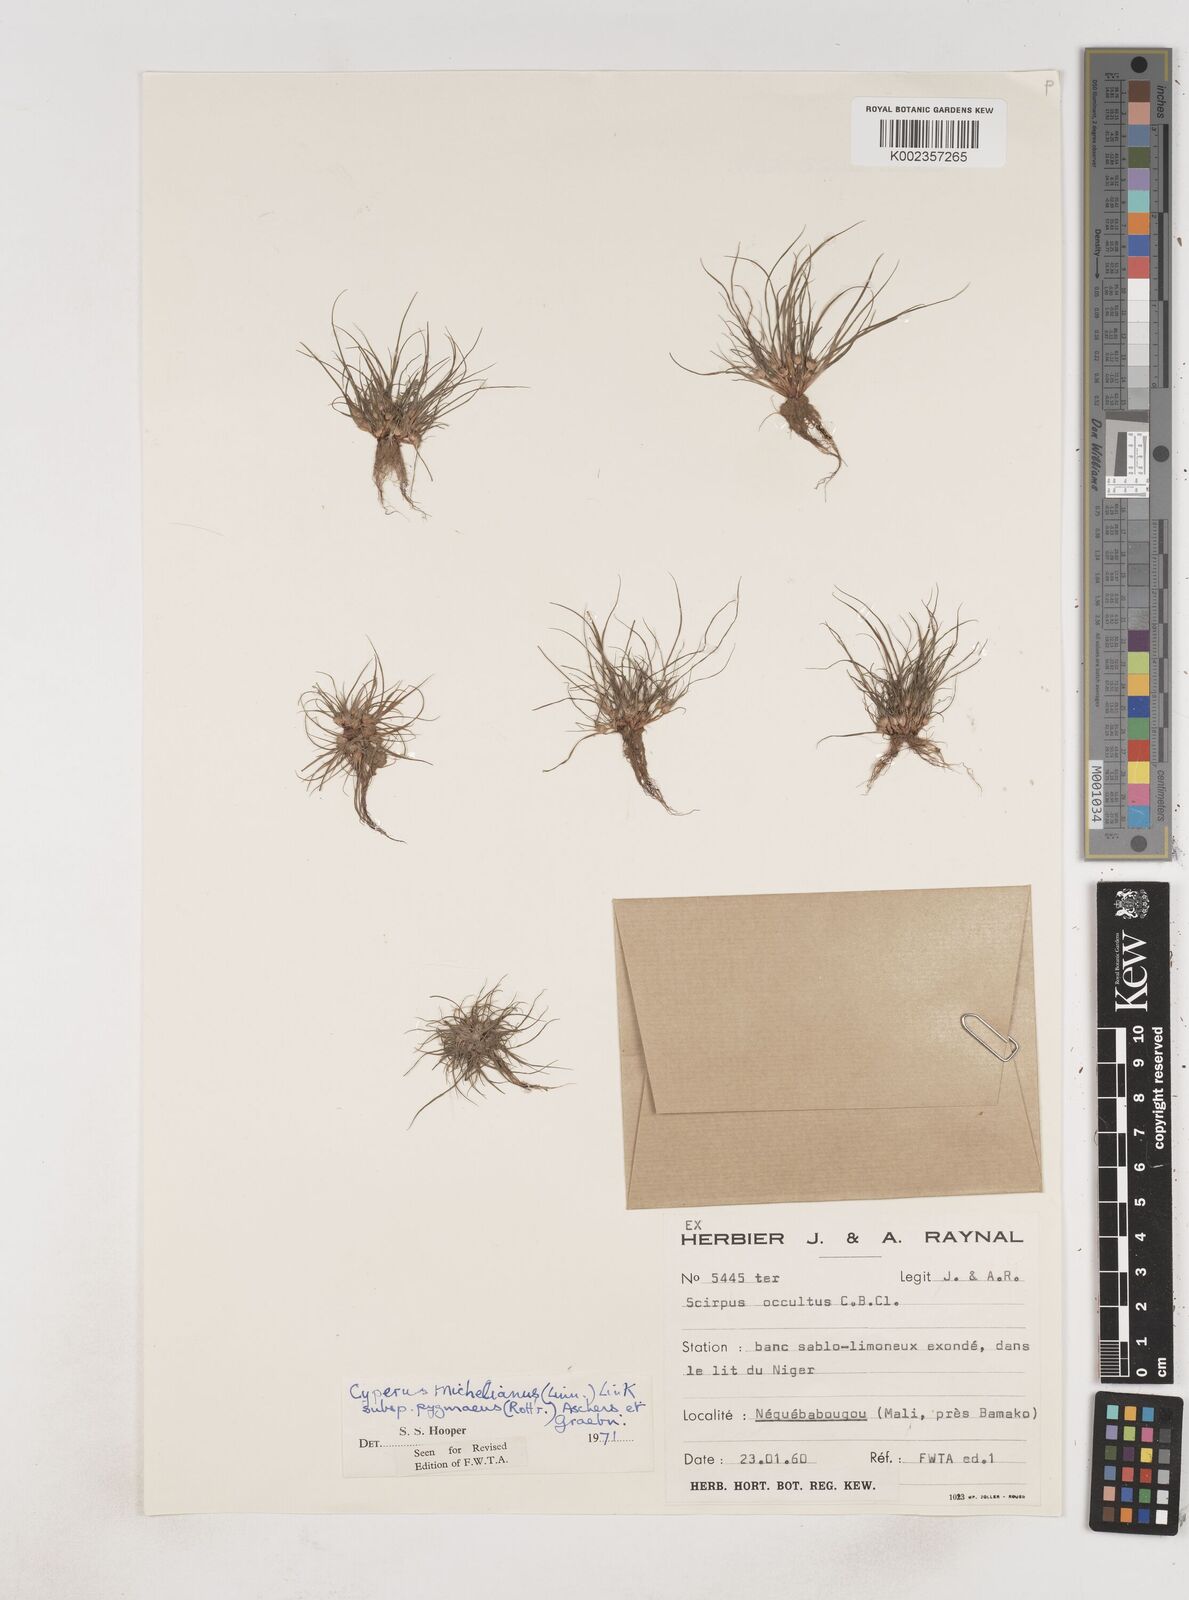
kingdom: Plantae
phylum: Tracheophyta
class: Liliopsida
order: Poales
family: Cyperaceae
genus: Cyperus
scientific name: Cyperus michelianus
